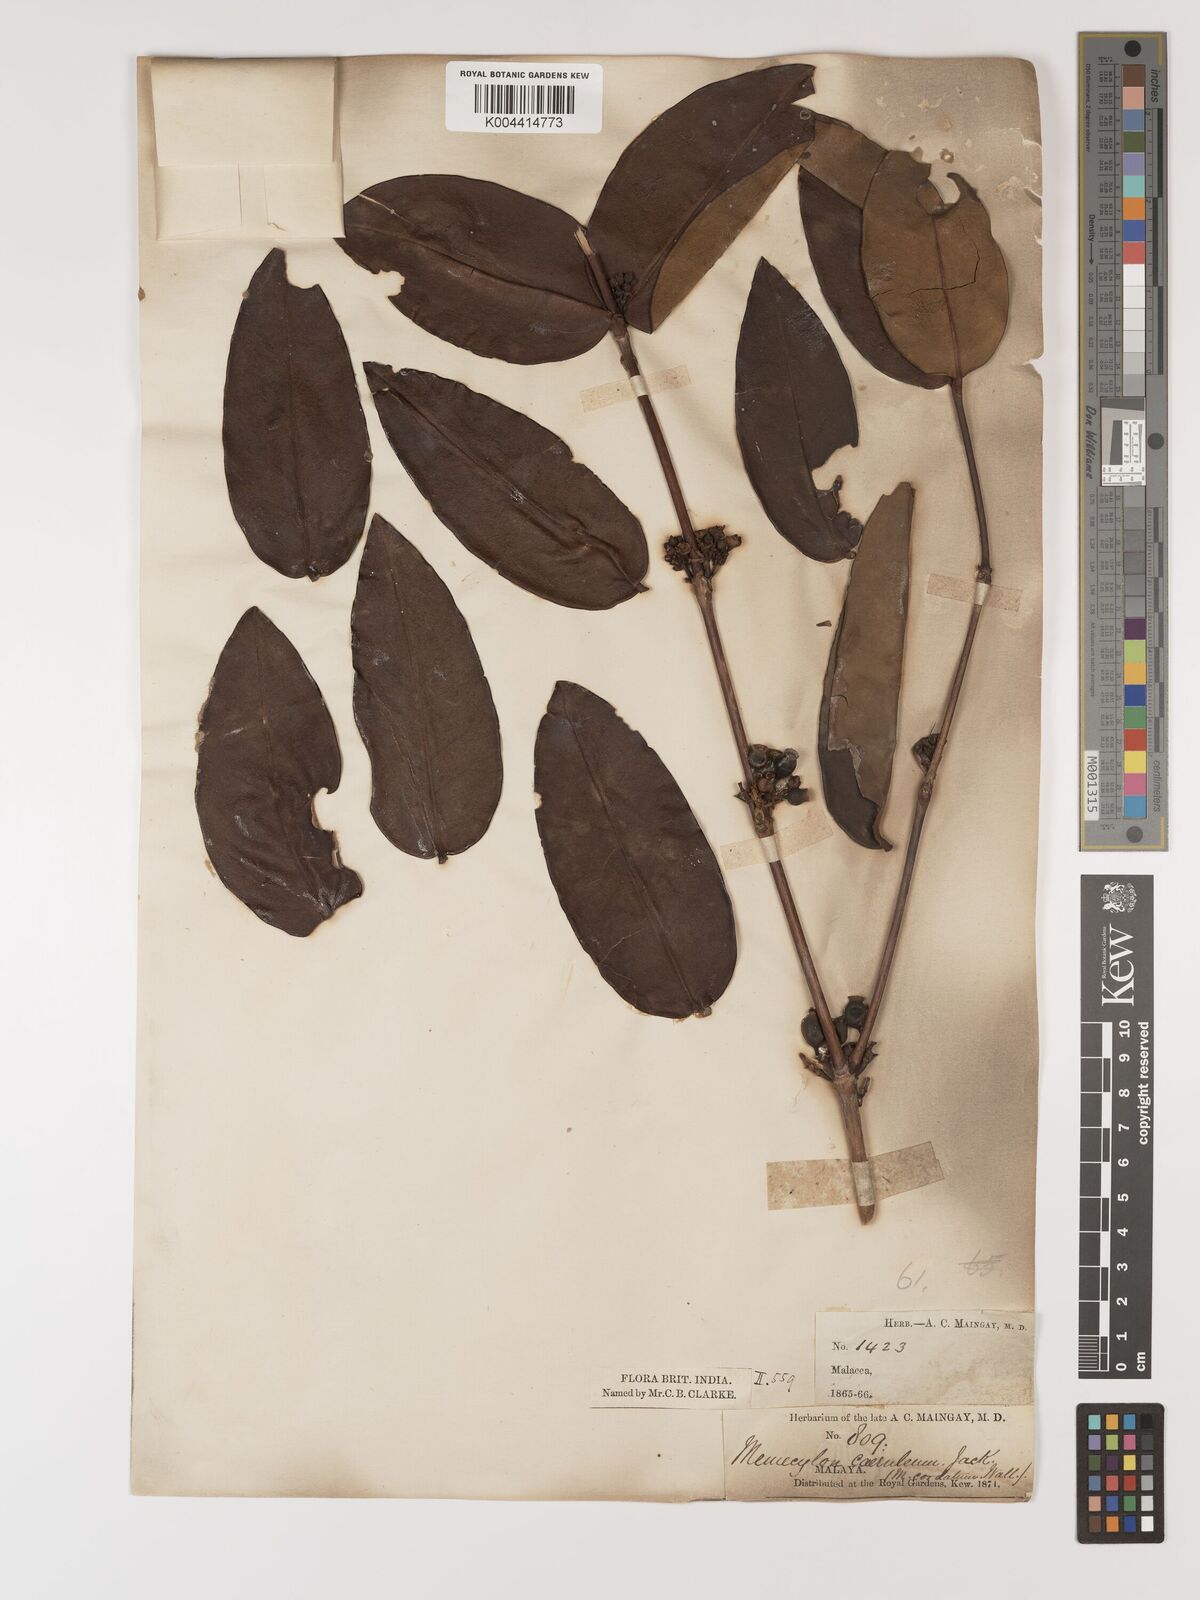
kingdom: Plantae
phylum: Tracheophyta
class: Magnoliopsida
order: Myrtales
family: Melastomataceae
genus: Memecylon
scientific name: Memecylon
